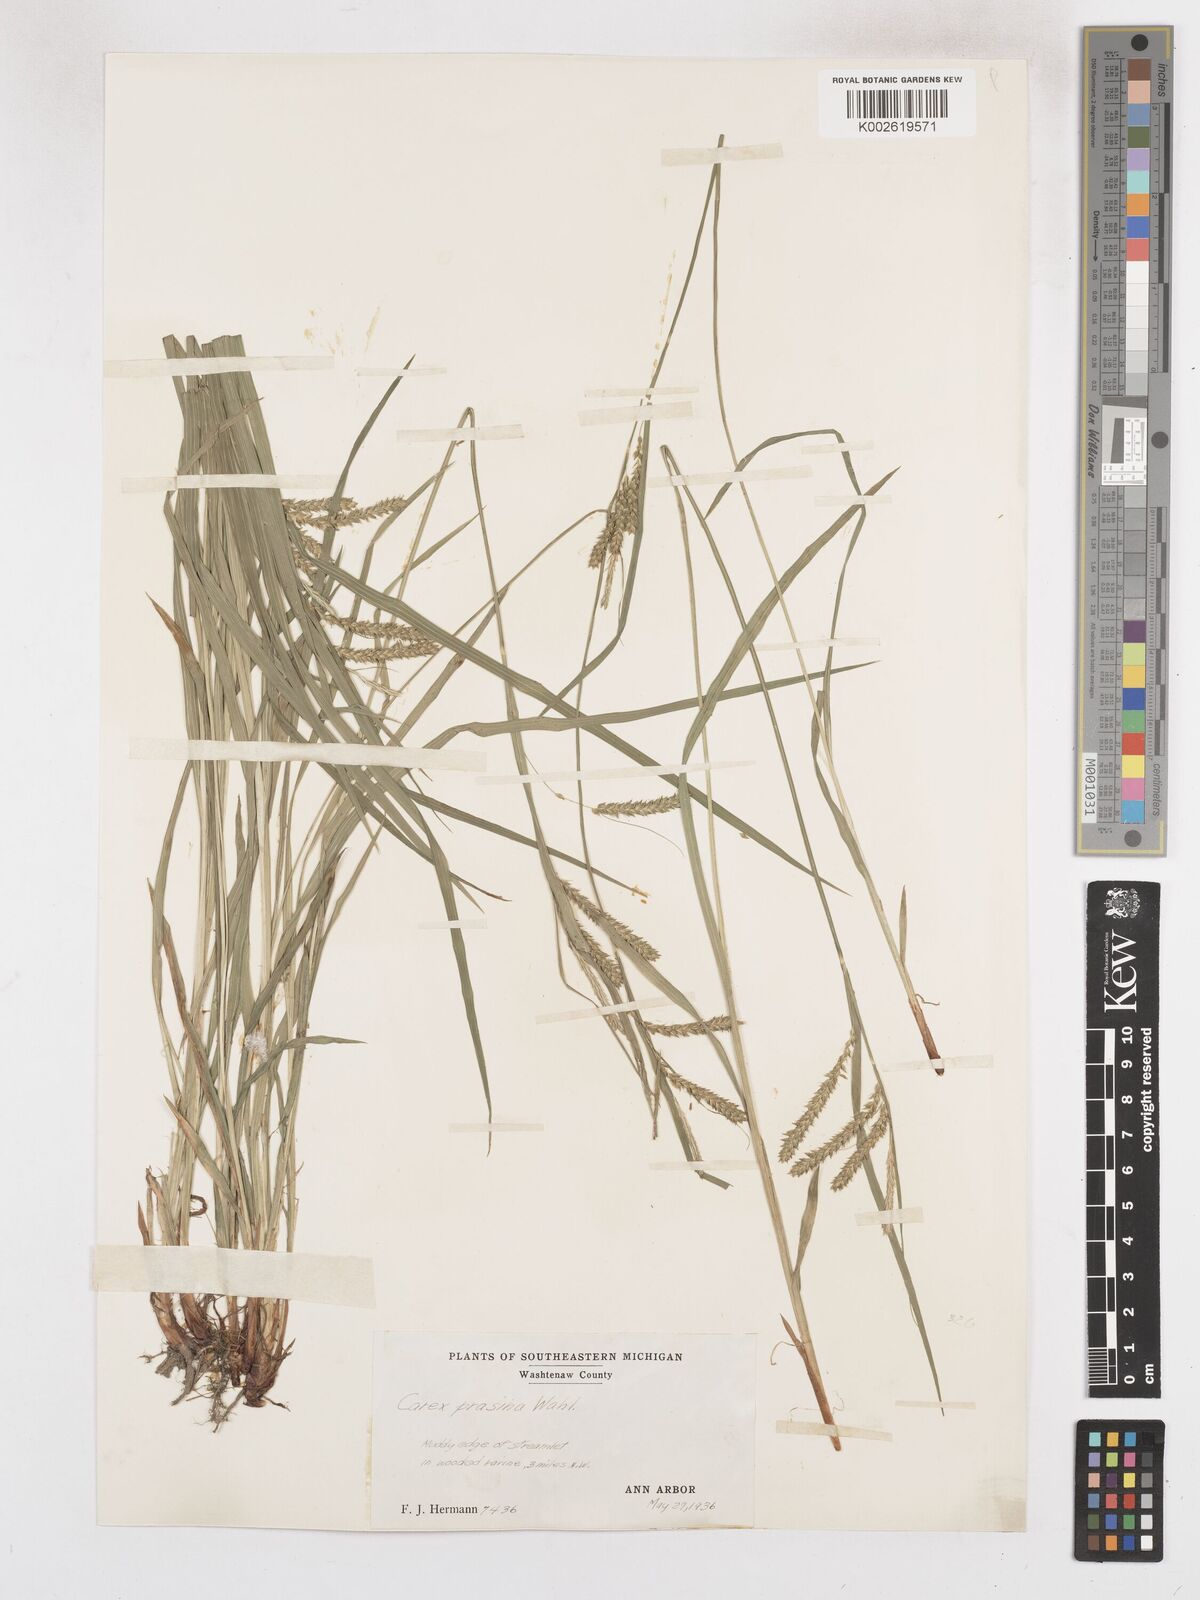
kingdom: Plantae
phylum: Tracheophyta
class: Liliopsida
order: Poales
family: Cyperaceae
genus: Carex
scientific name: Carex prasina
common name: Drooping sedge
